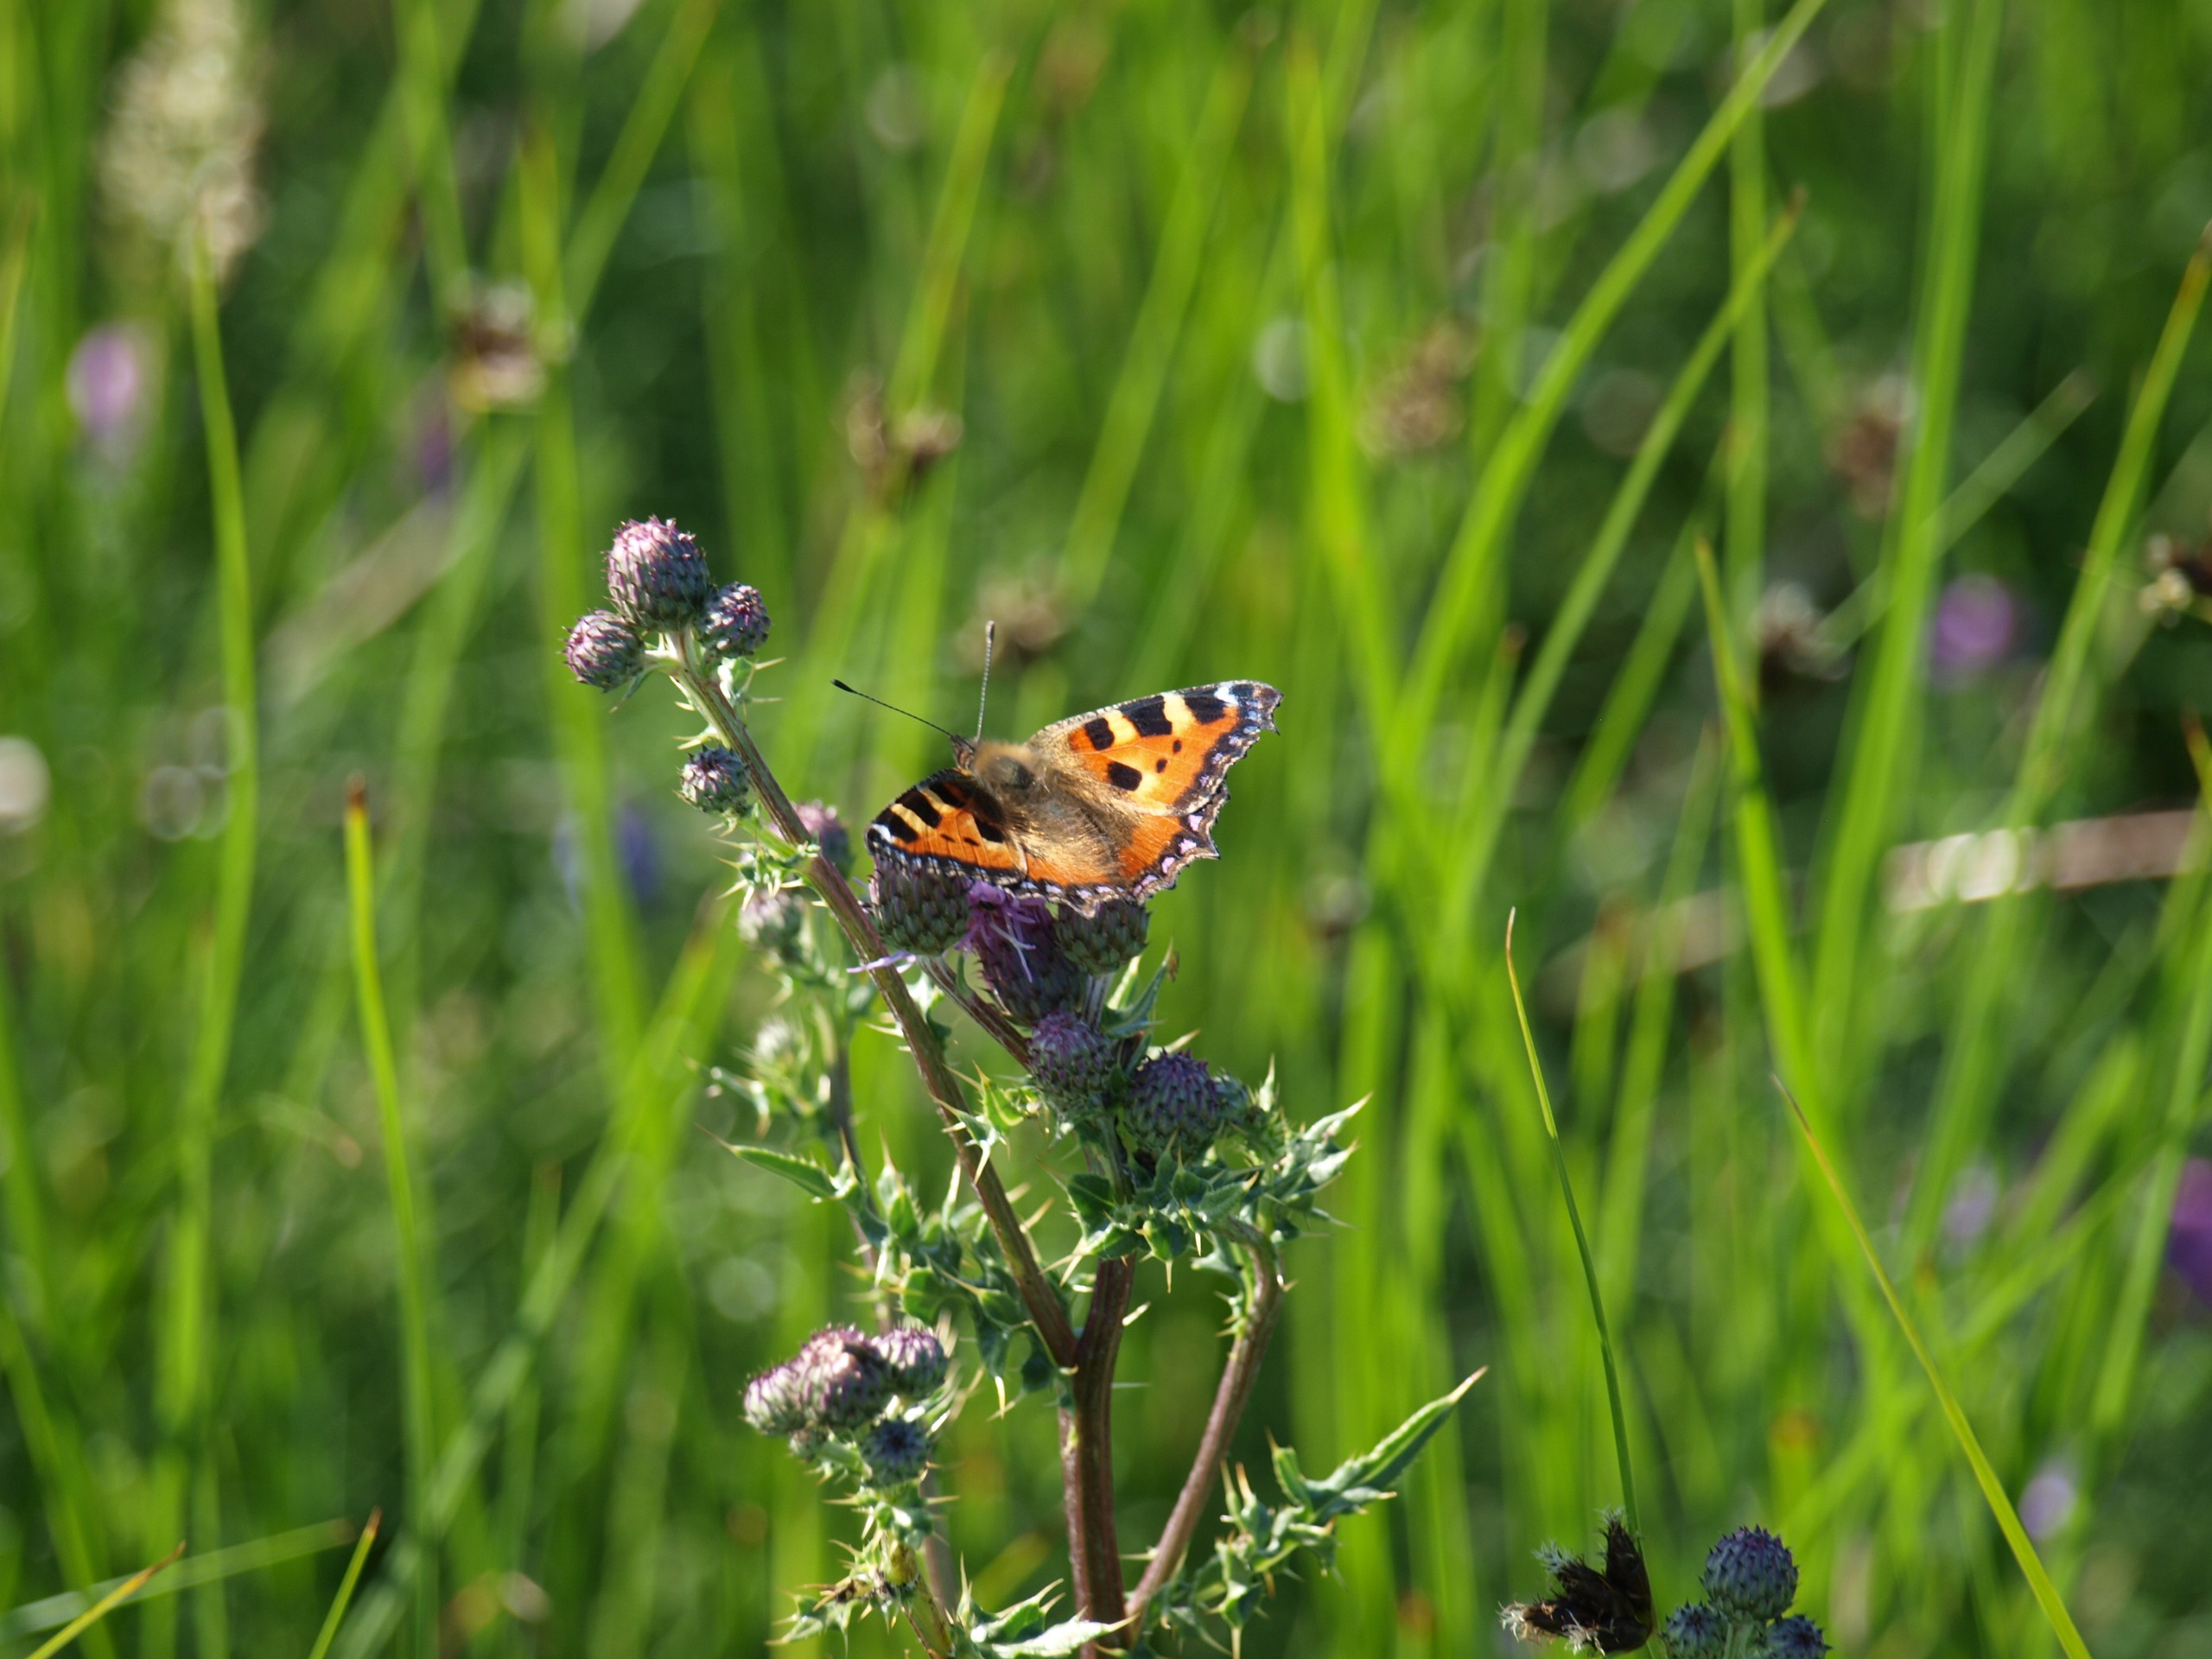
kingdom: Animalia
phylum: Arthropoda
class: Insecta
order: Lepidoptera
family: Nymphalidae
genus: Aglais
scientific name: Aglais urticae
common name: Nældens takvinge
